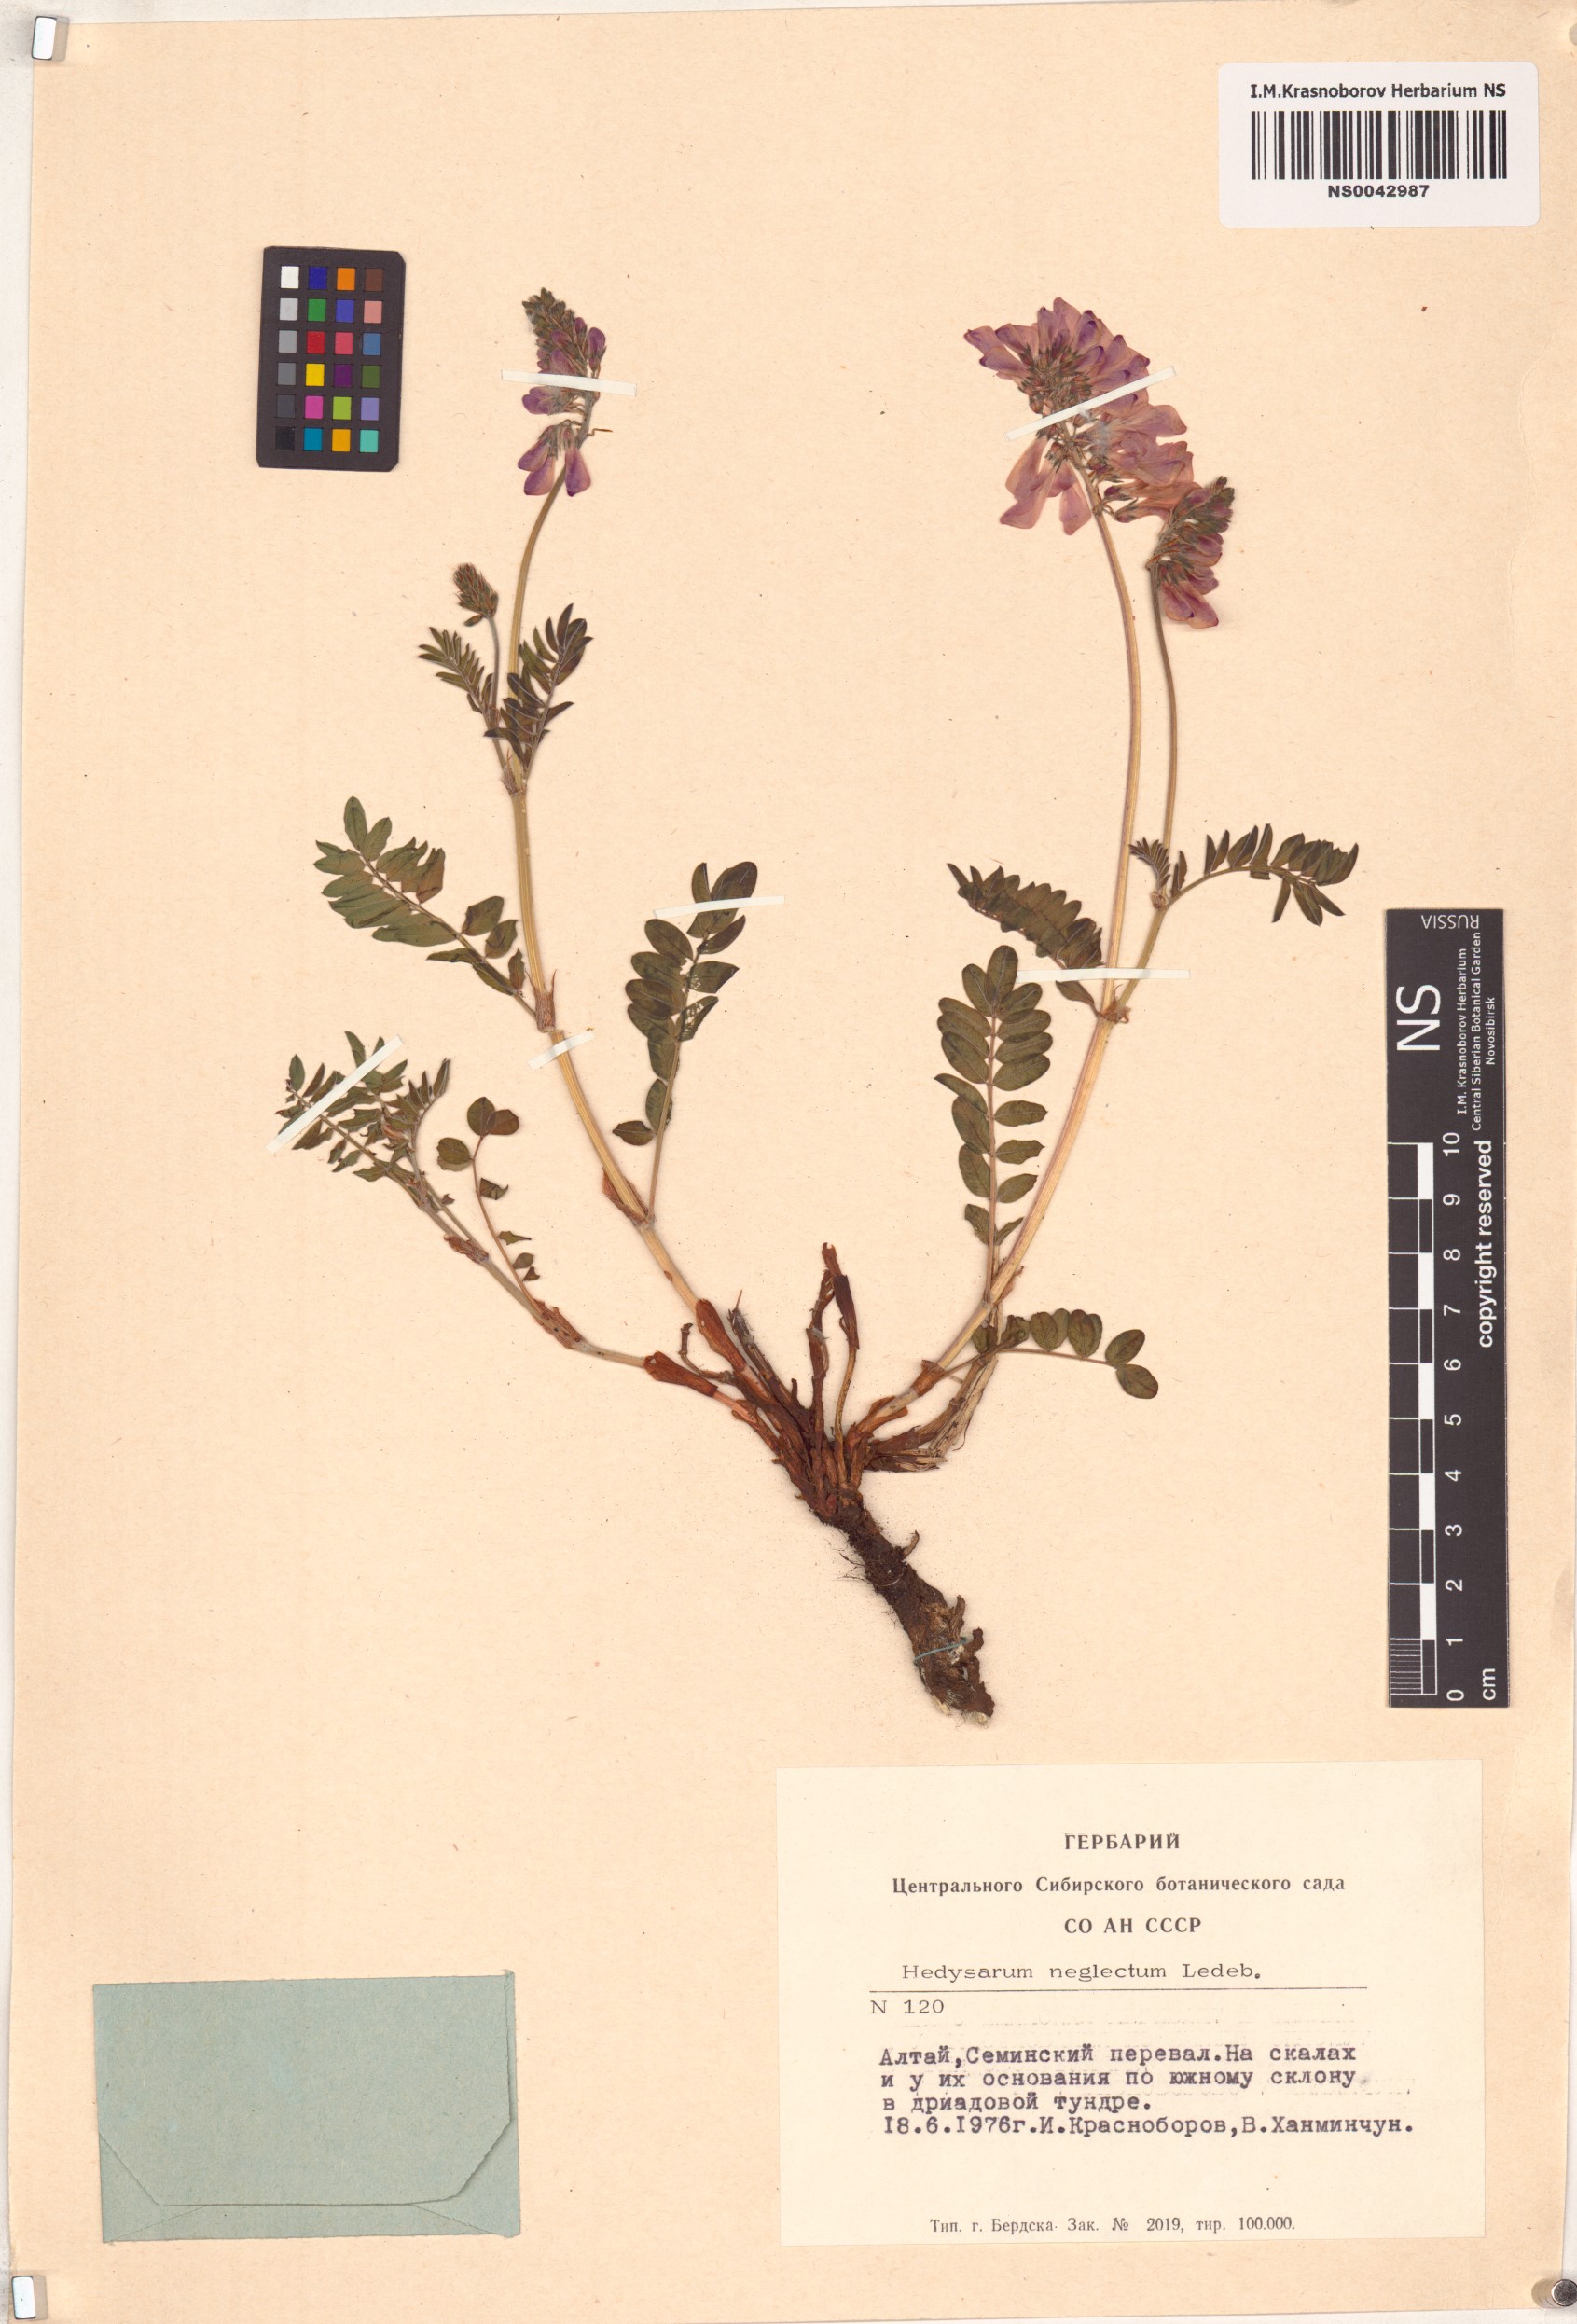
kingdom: Plantae
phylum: Tracheophyta
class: Magnoliopsida
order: Fabales
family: Fabaceae
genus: Hedysarum
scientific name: Hedysarum neglectum
